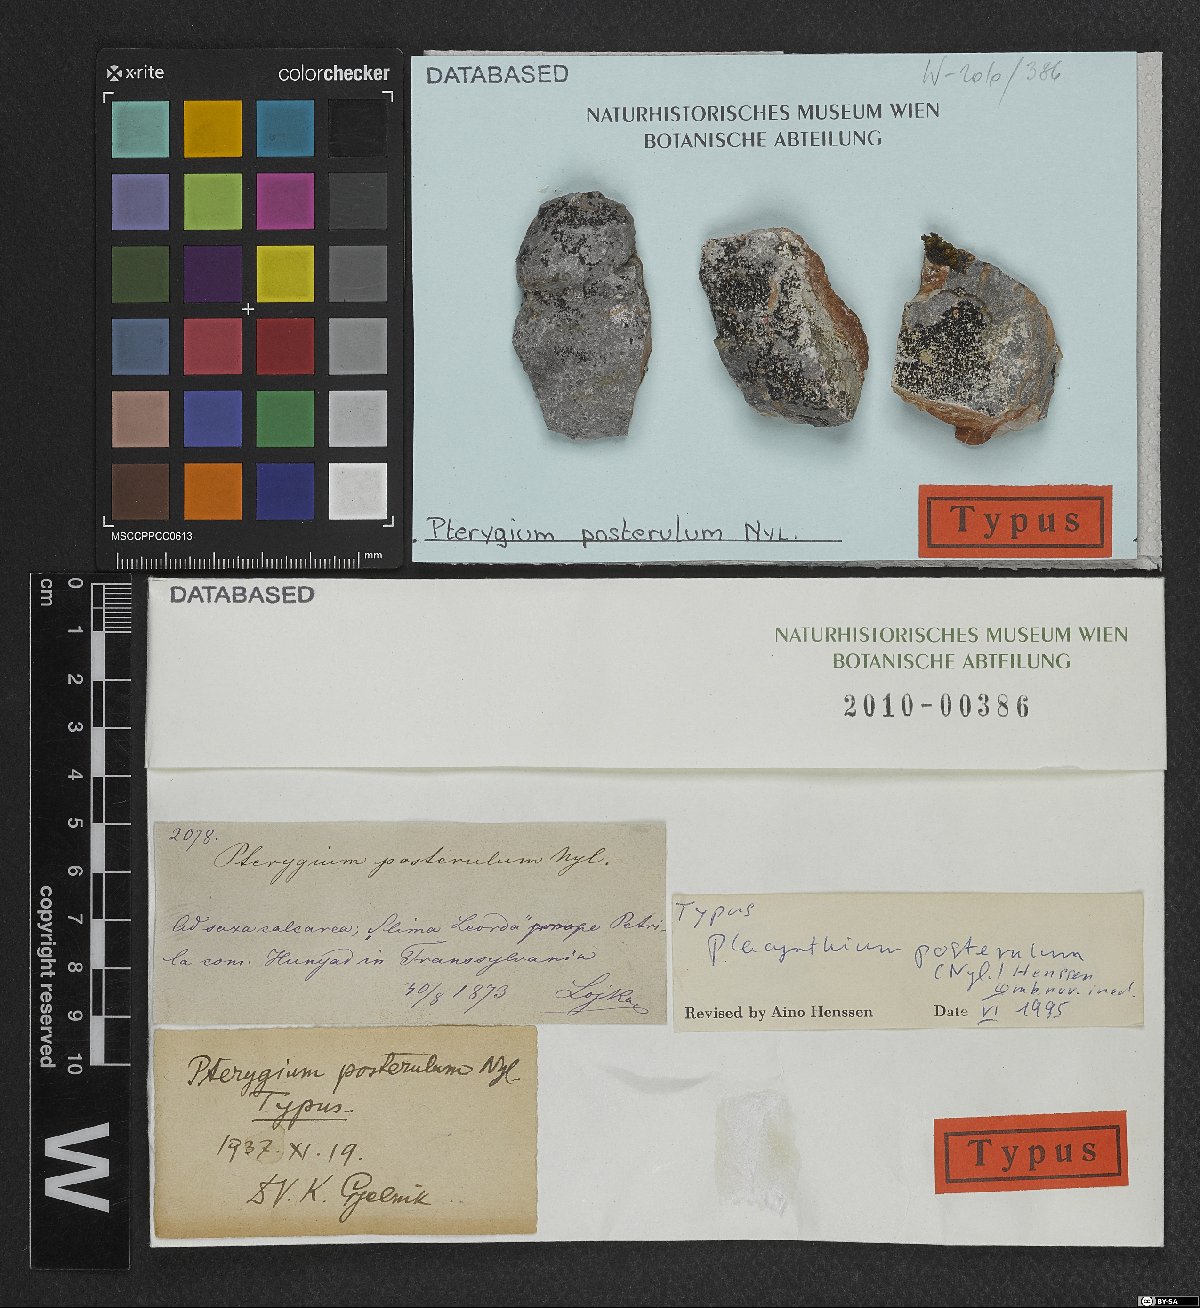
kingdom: Fungi
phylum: Ascomycota
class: Lecanoromycetes
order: Peltigerales
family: Placynthiaceae
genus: Placynthium
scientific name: Placynthium posterulum
